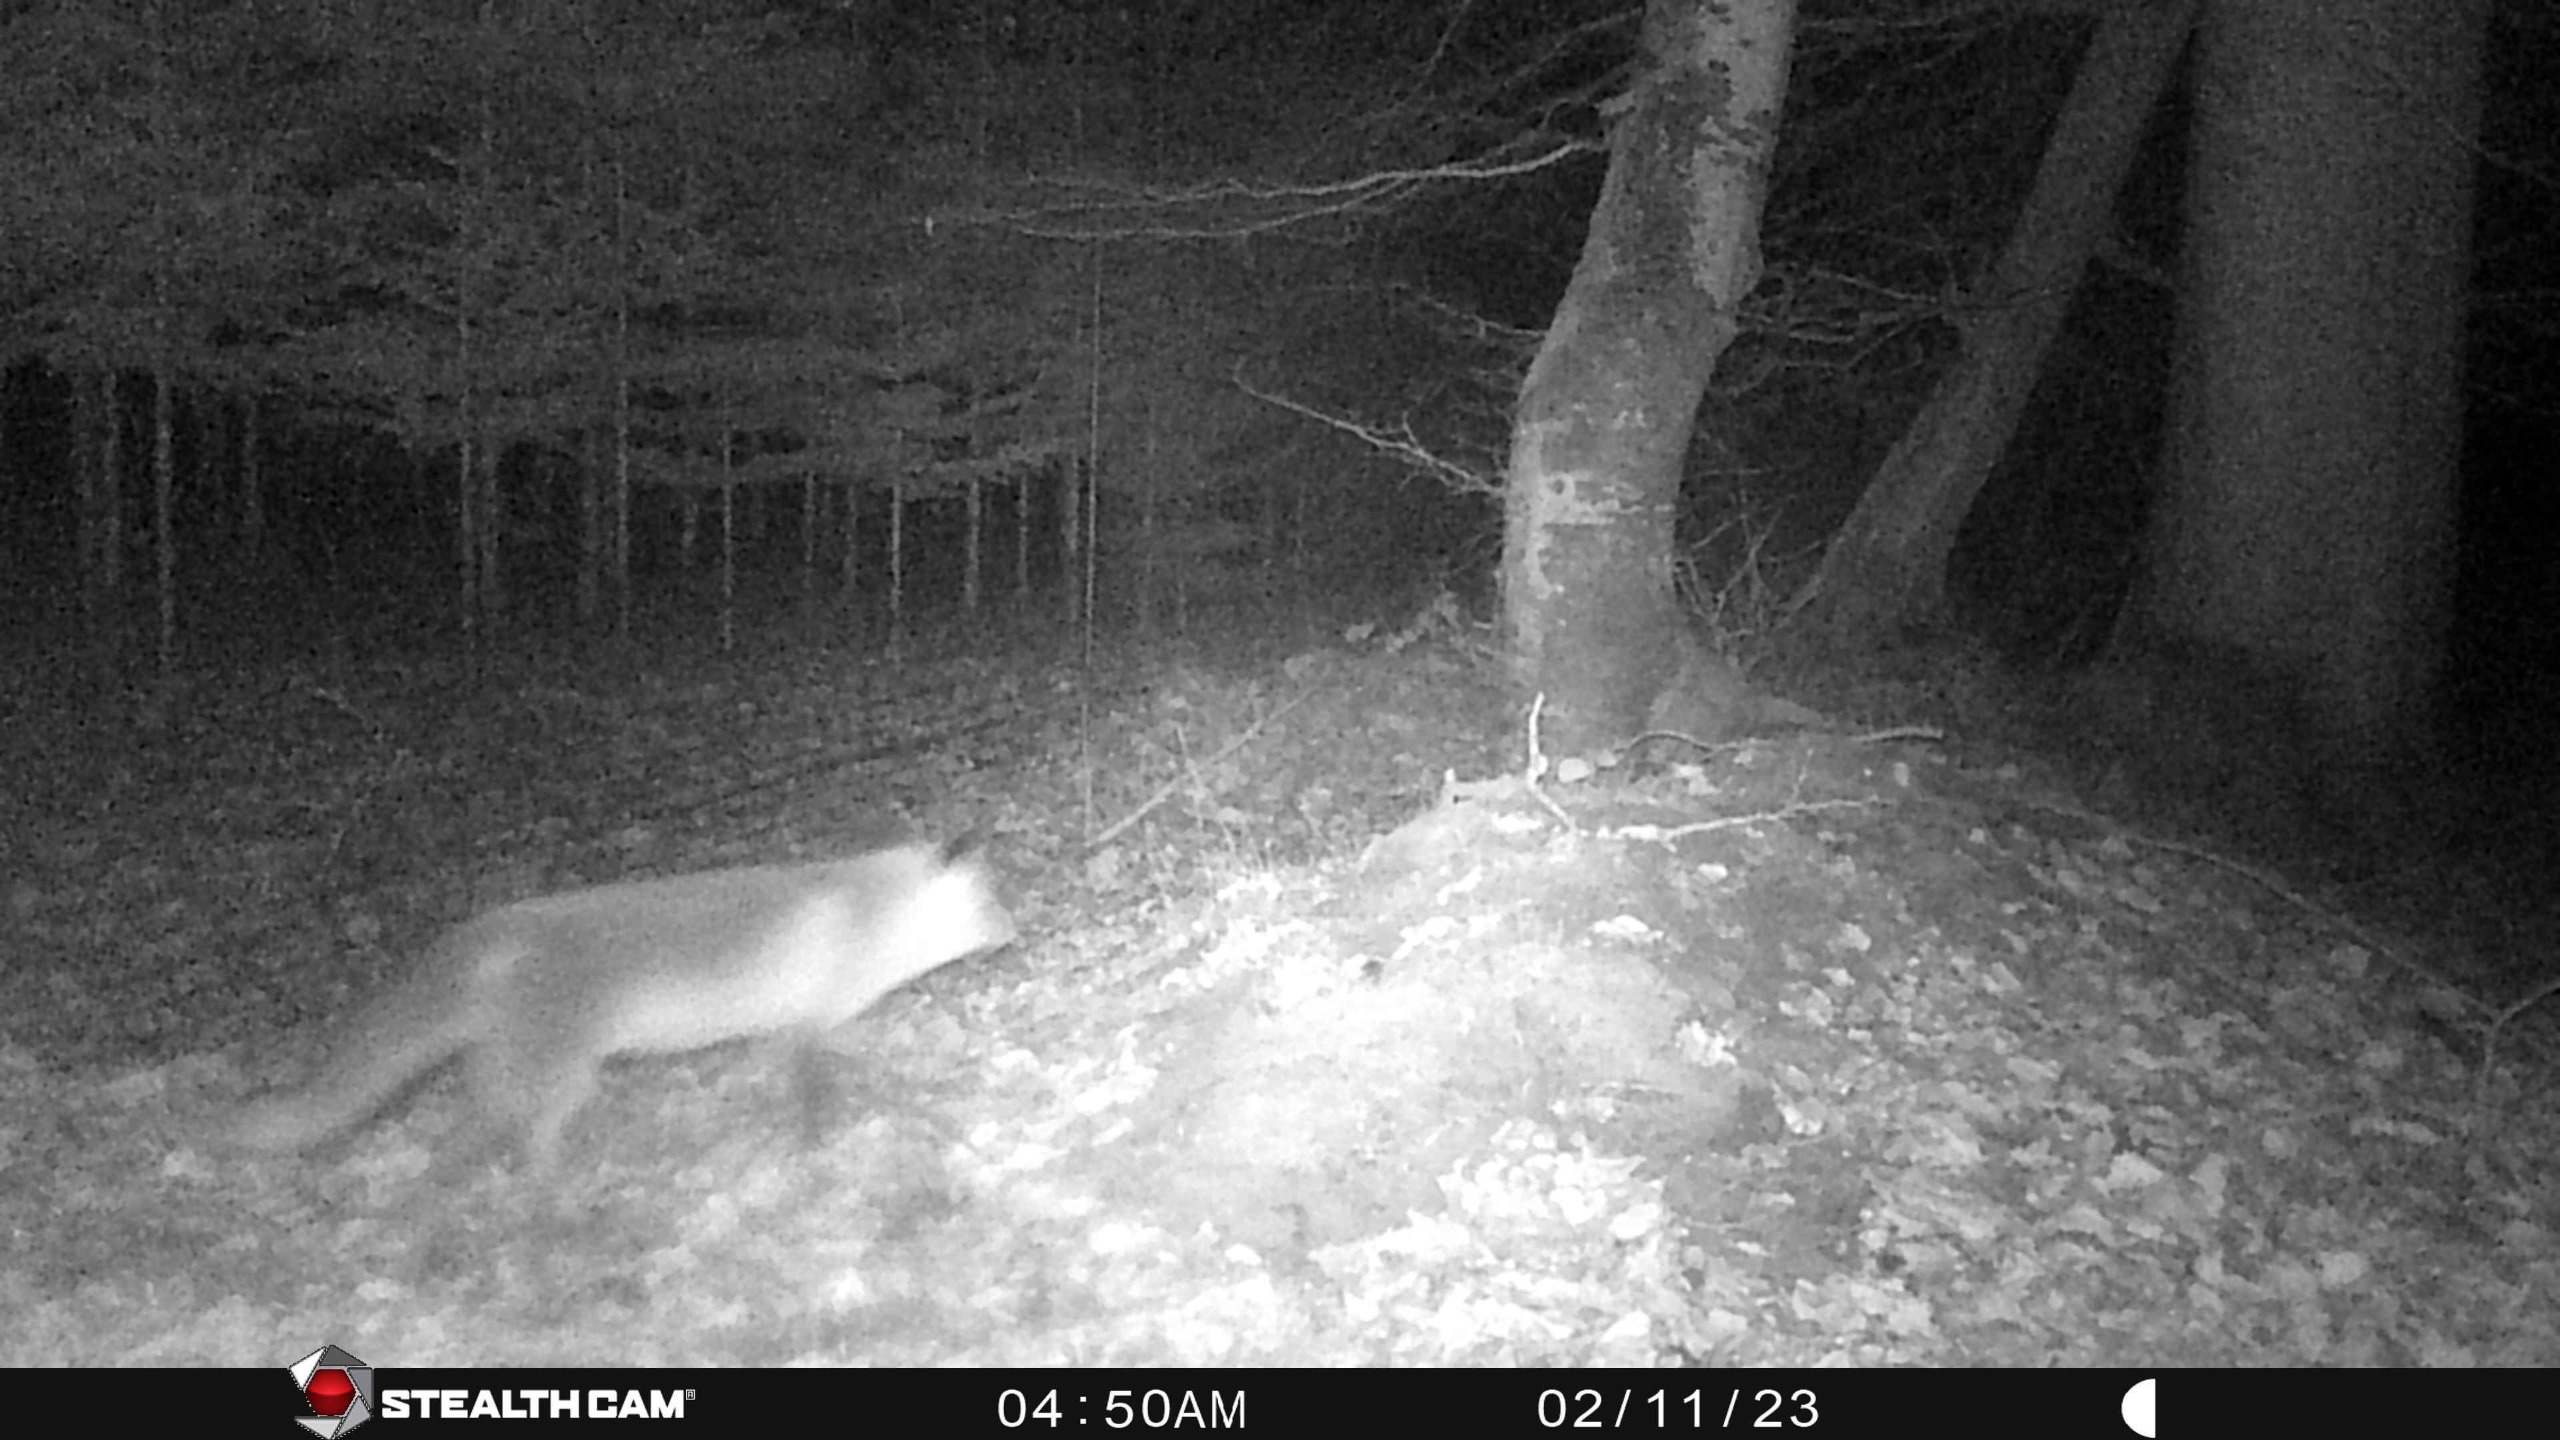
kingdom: Animalia
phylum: Chordata
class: Mammalia
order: Carnivora
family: Canidae
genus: Vulpes
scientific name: Vulpes vulpes
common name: Ræv
